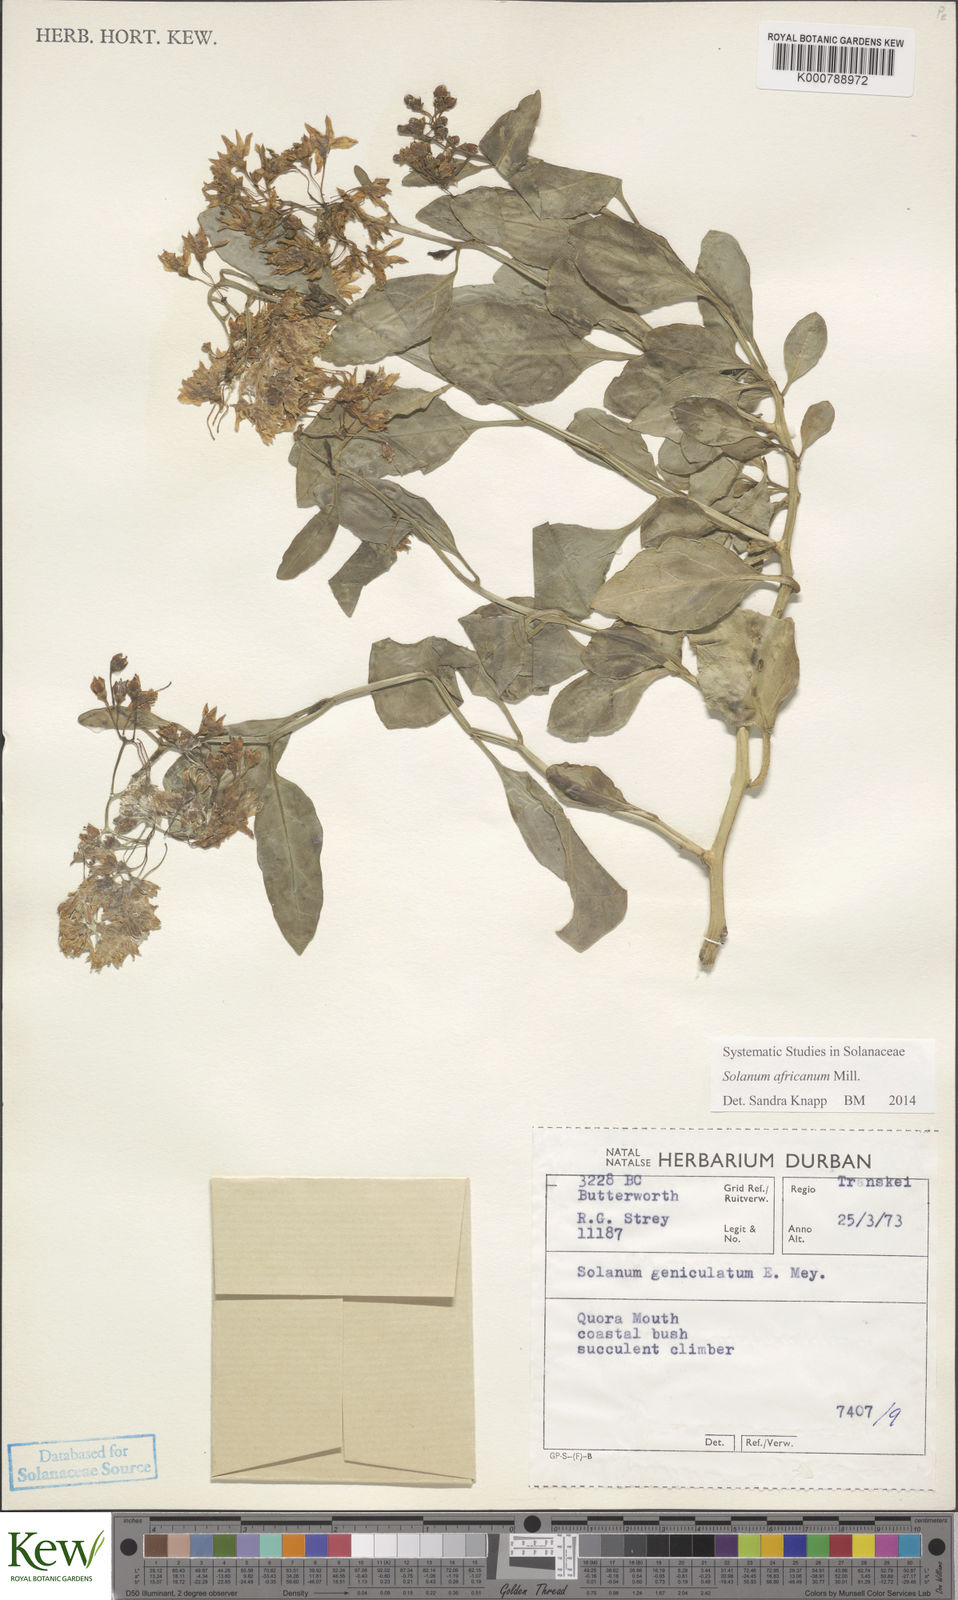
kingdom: Plantae
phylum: Tracheophyta
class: Magnoliopsida
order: Solanales
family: Solanaceae
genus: Solanum
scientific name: Solanum africanum
